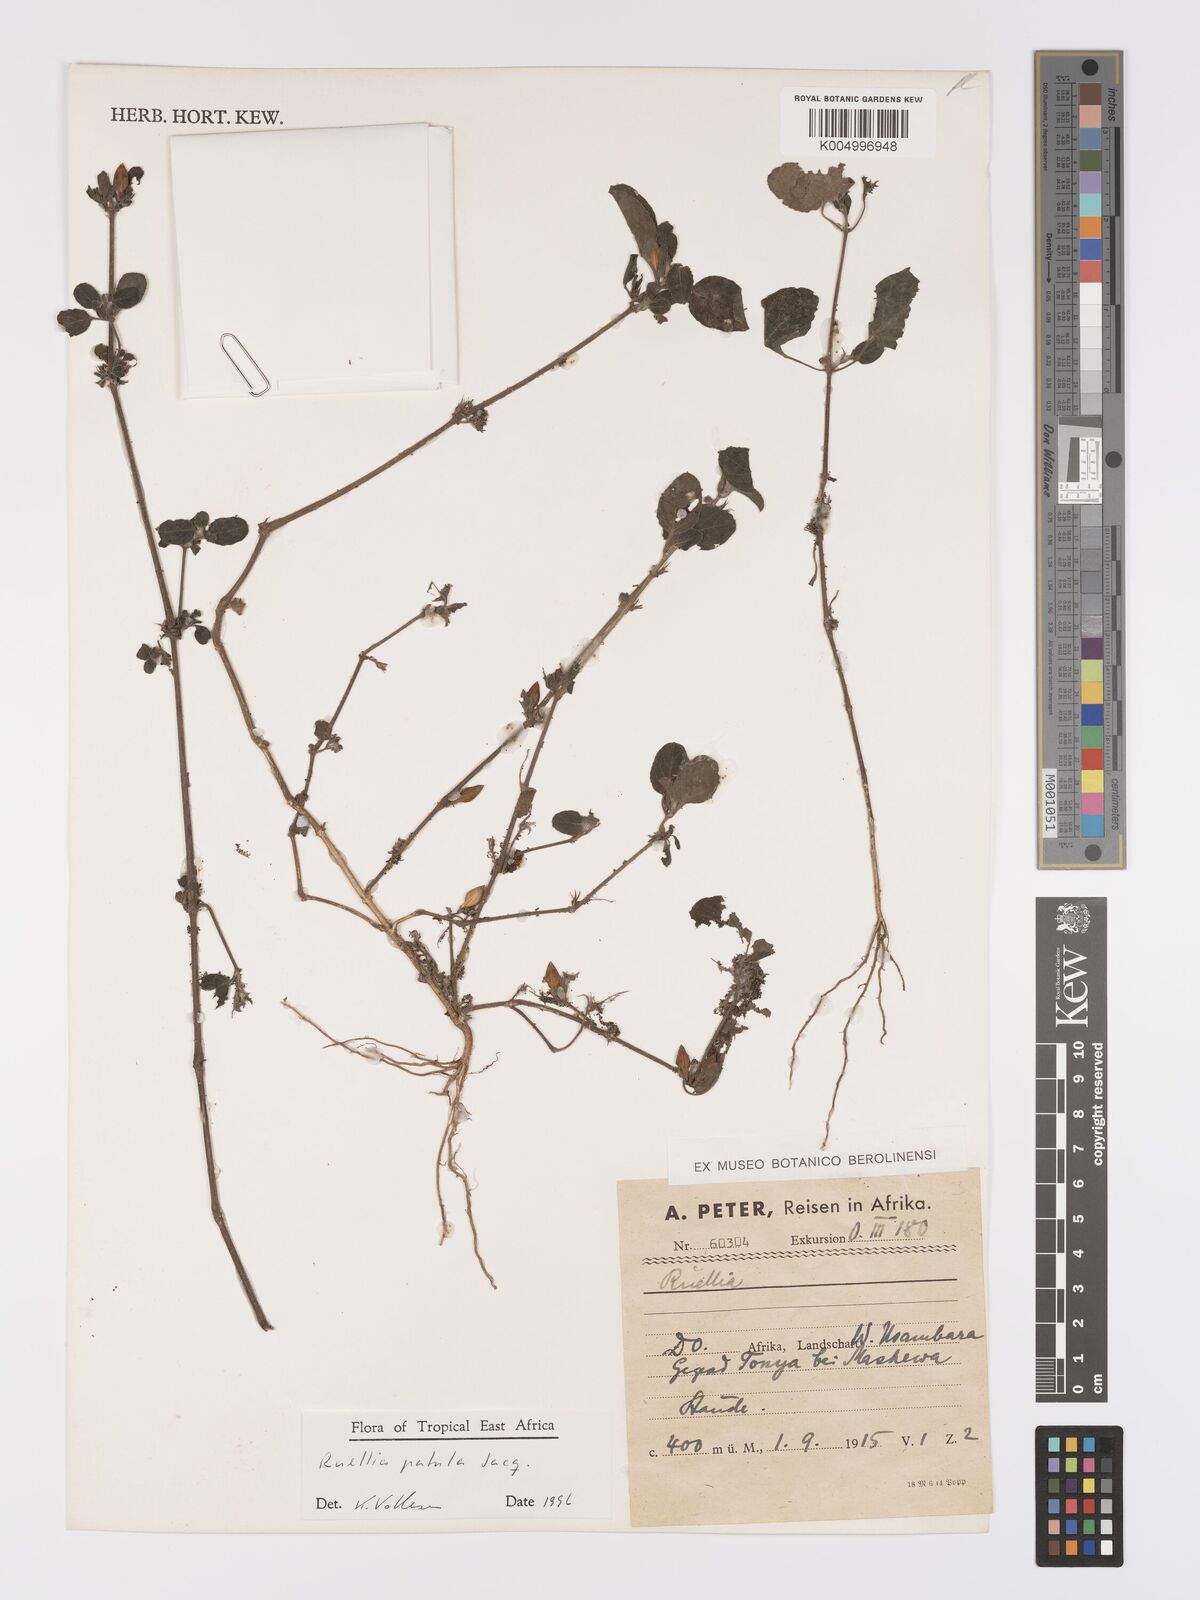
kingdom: Plantae
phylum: Tracheophyta
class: Magnoliopsida
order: Lamiales
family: Acanthaceae
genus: Ruellia
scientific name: Ruellia patula
